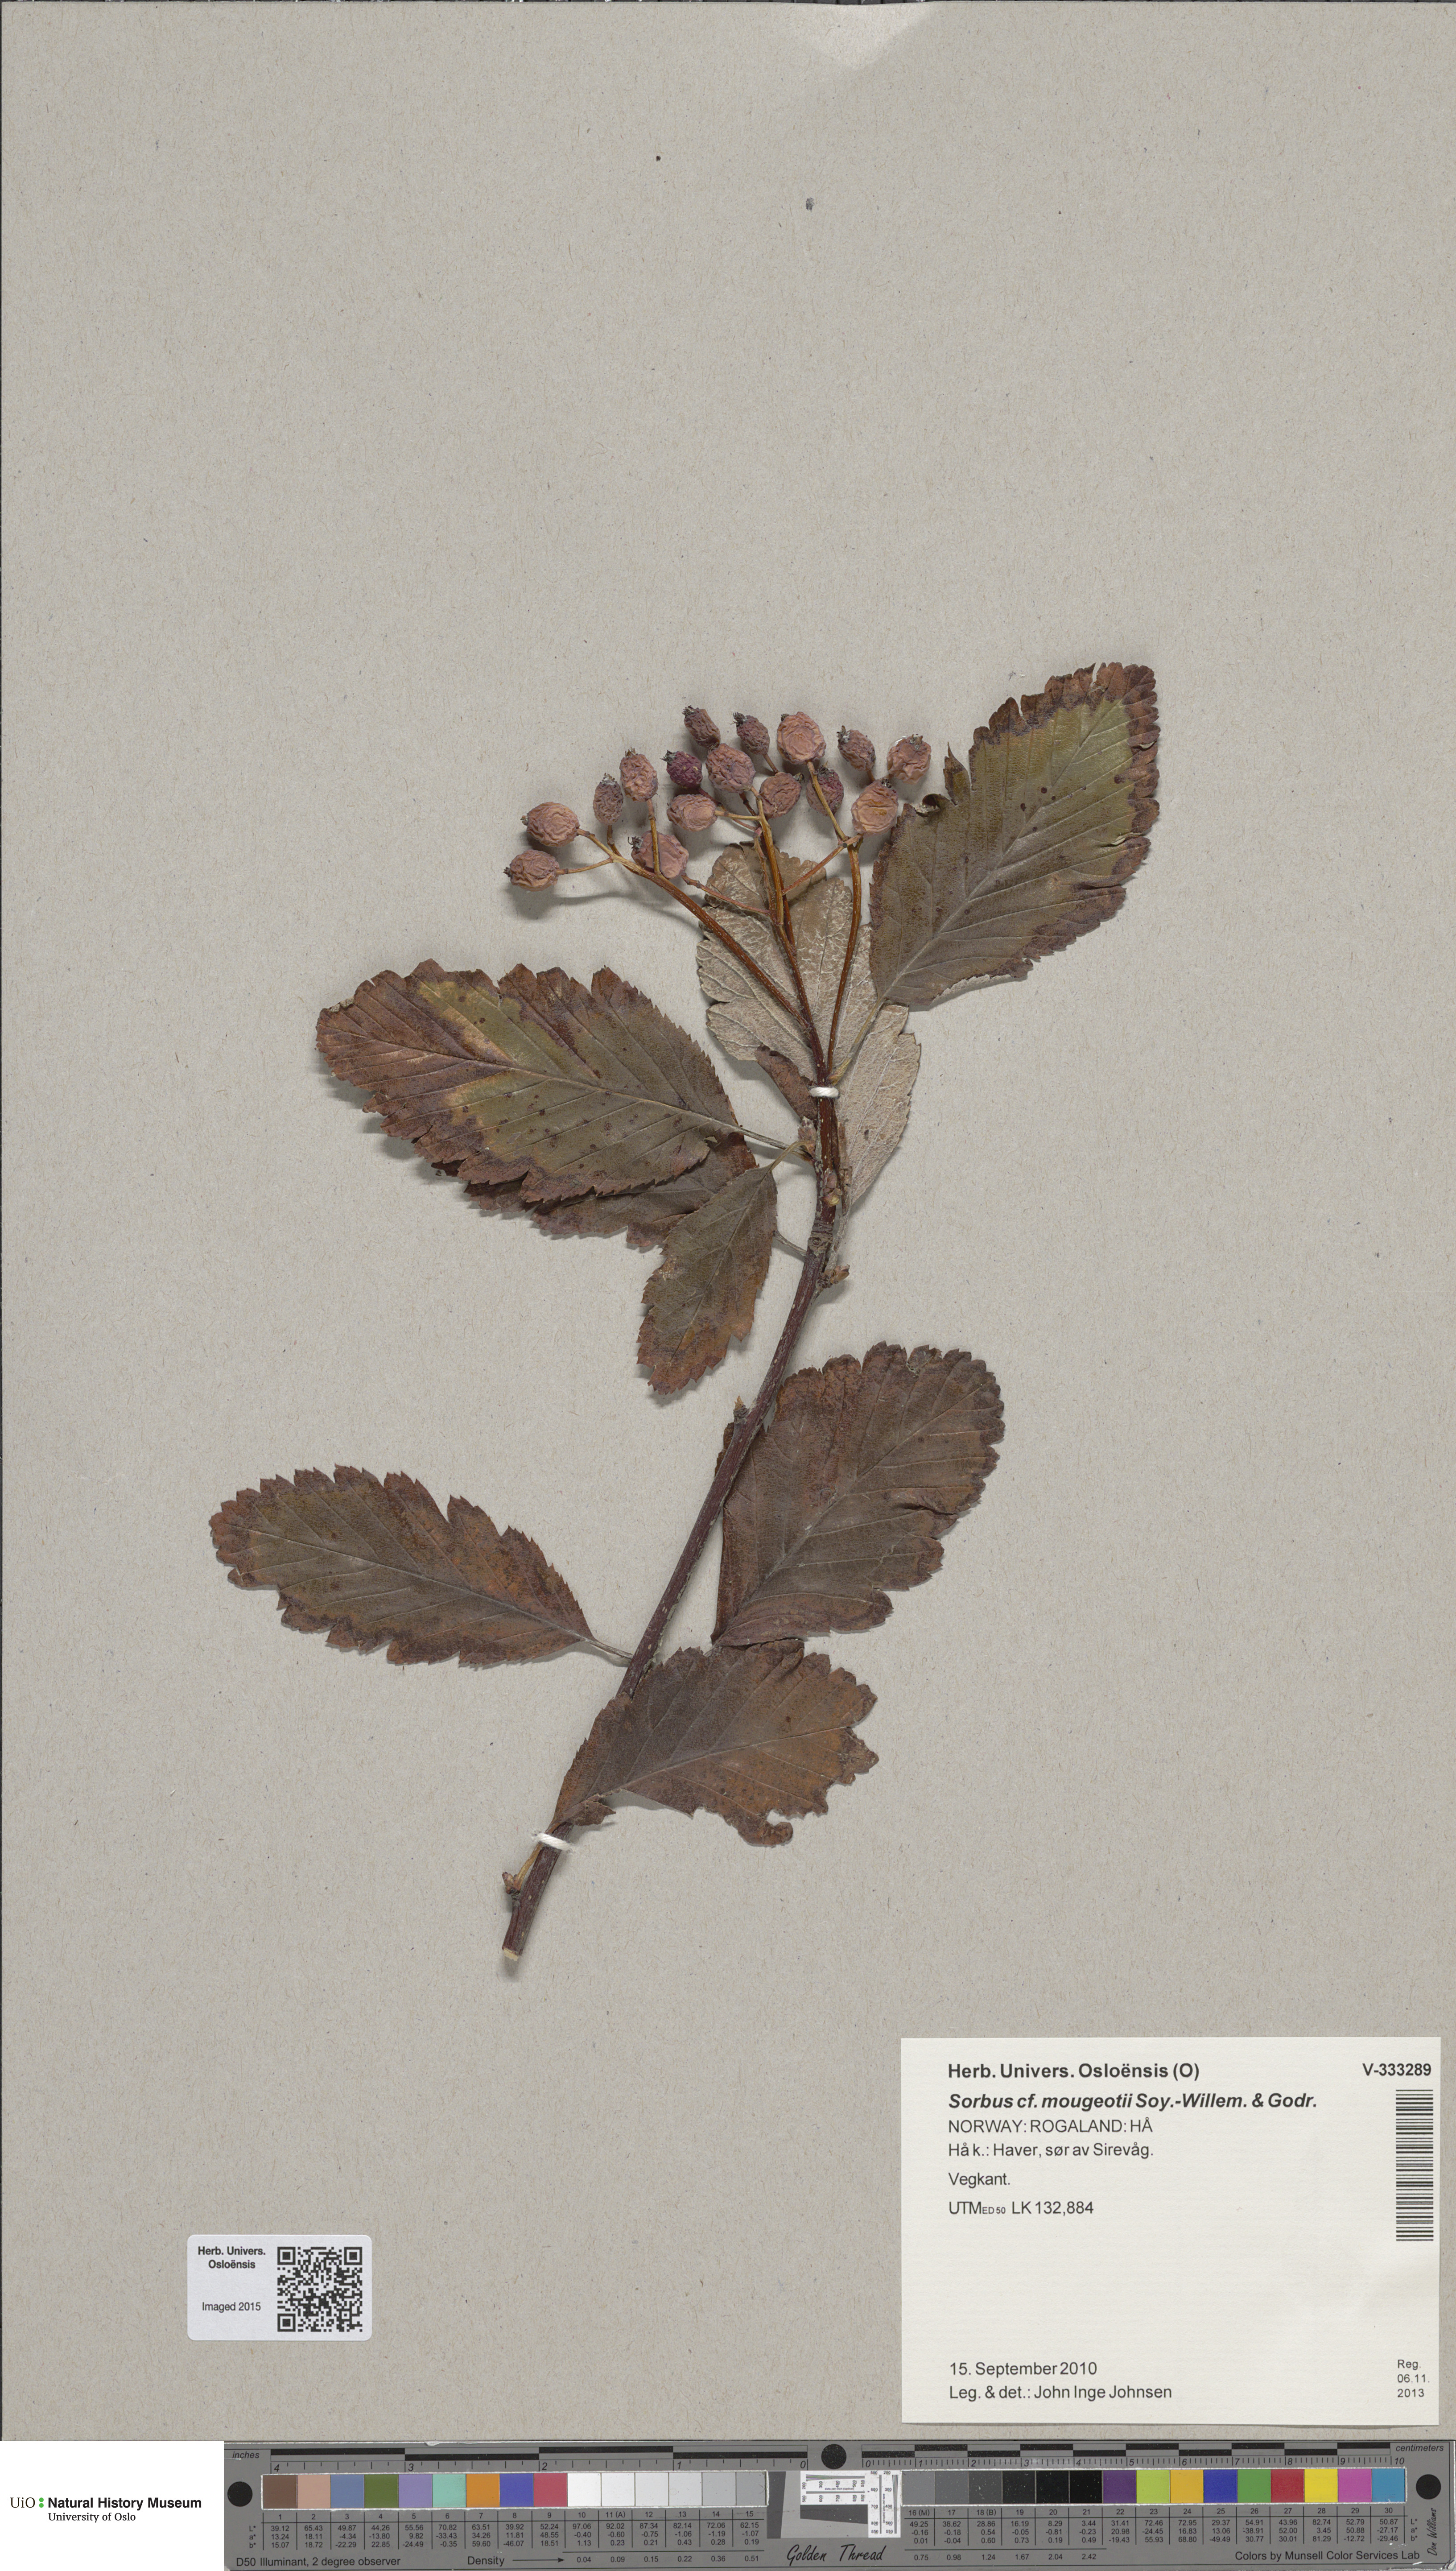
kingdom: Plantae
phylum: Tracheophyta
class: Magnoliopsida
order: Rosales
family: Rosaceae
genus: Hedlundia
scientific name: Hedlundia subsimilis
